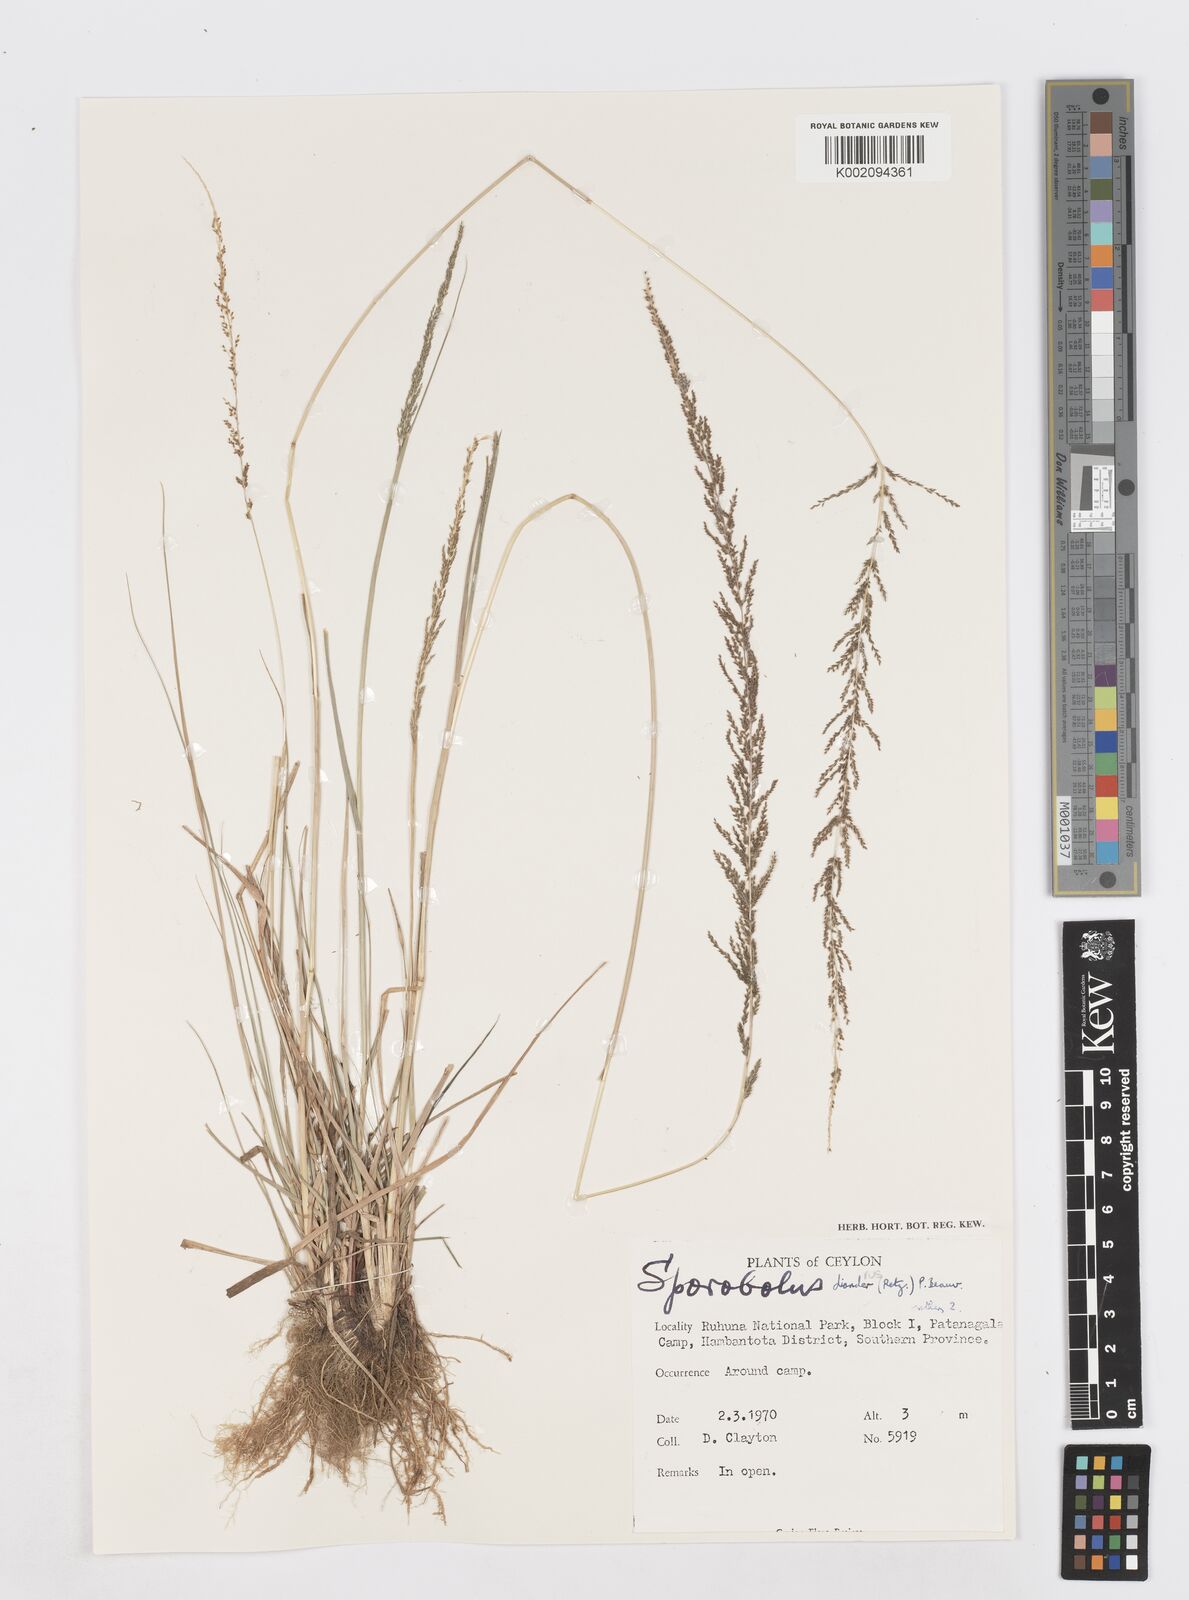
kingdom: Plantae
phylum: Tracheophyta
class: Liliopsida
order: Poales
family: Poaceae
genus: Sporobolus
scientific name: Sporobolus diandrus
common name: Tussock dropseed
